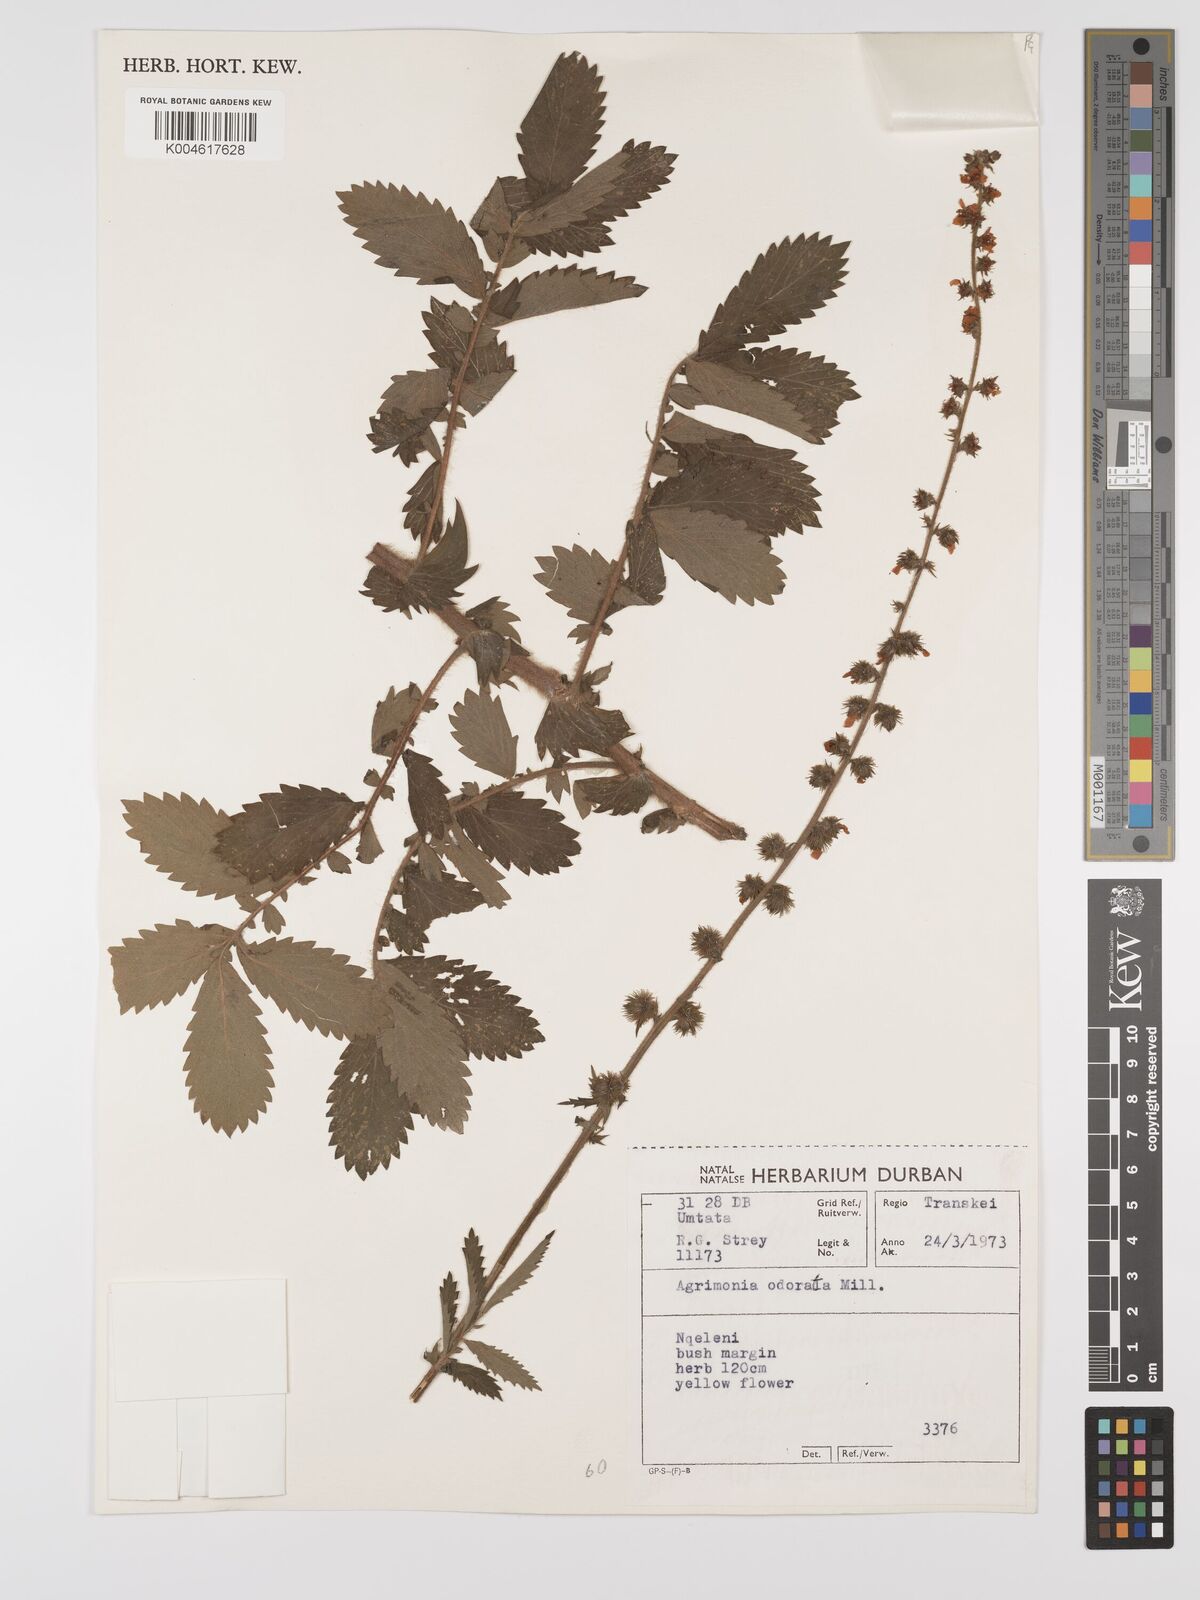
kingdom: Plantae
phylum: Tracheophyta
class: Magnoliopsida
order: Rosales
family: Rosaceae
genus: Agrimonia
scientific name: Agrimonia repens
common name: Creeping agrimony
